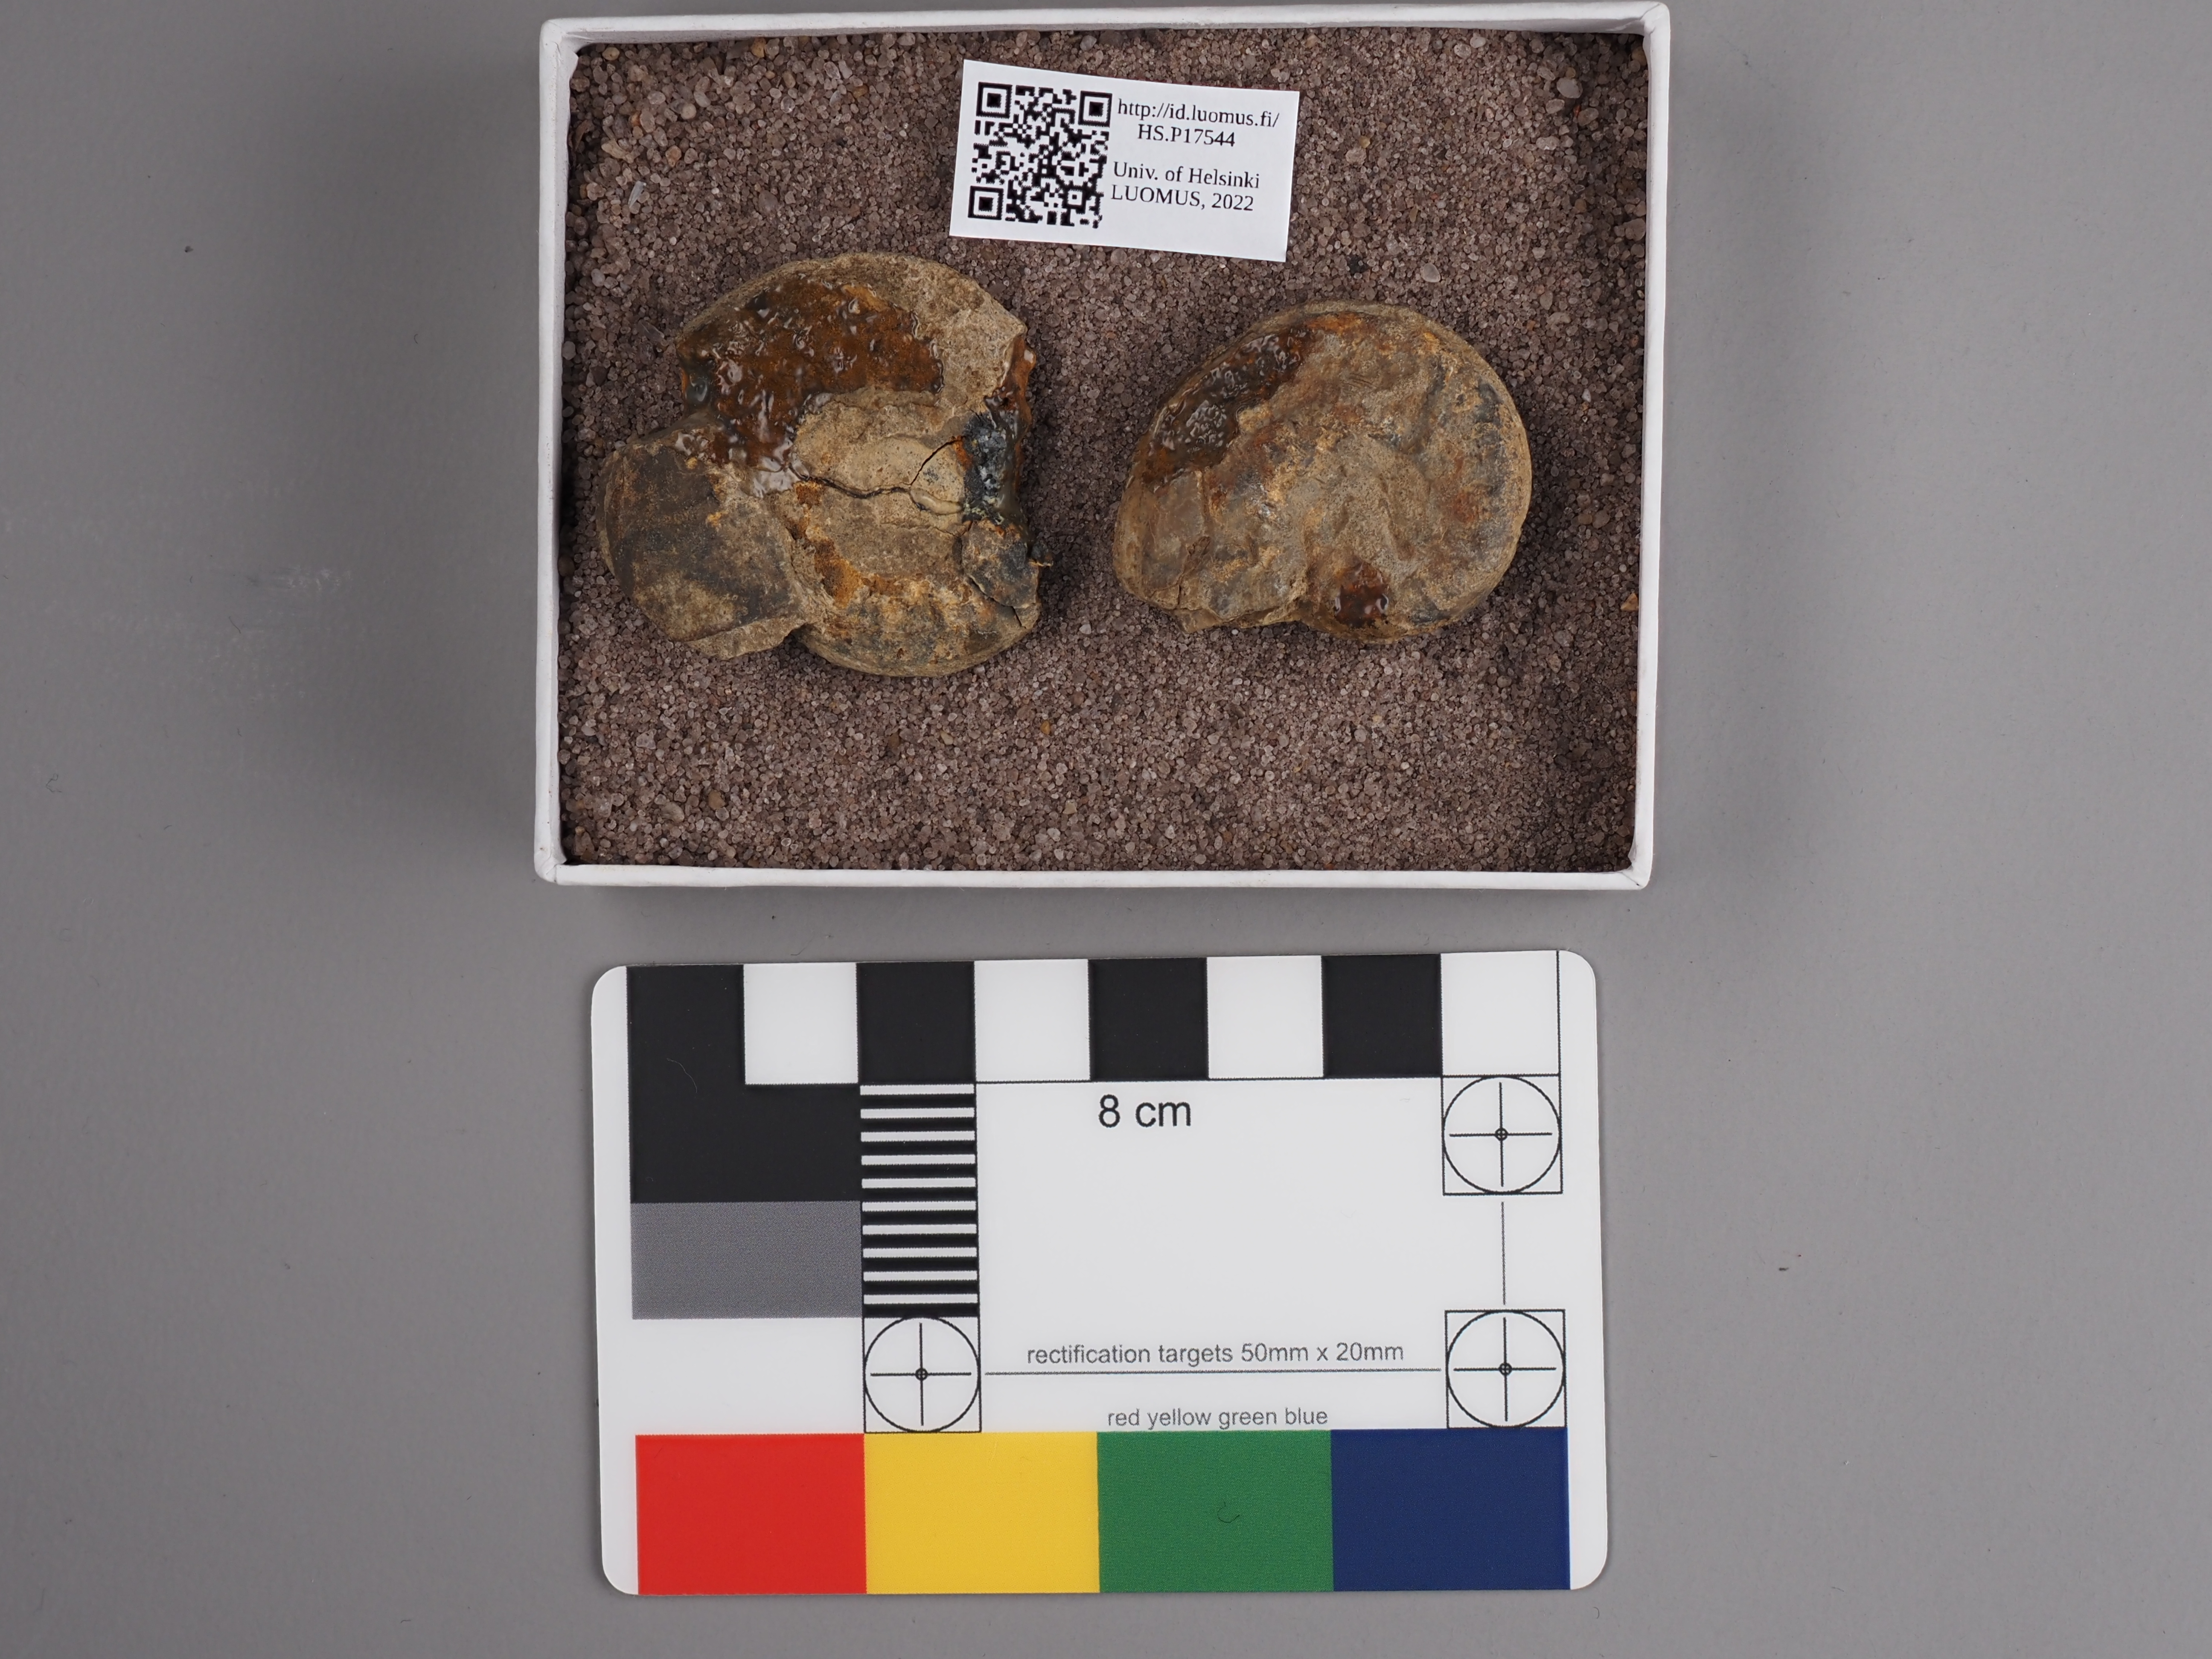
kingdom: Animalia
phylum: Mollusca
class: Cephalopoda
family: Graphoceratidae
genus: Leioceras
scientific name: Leioceras opalinum
